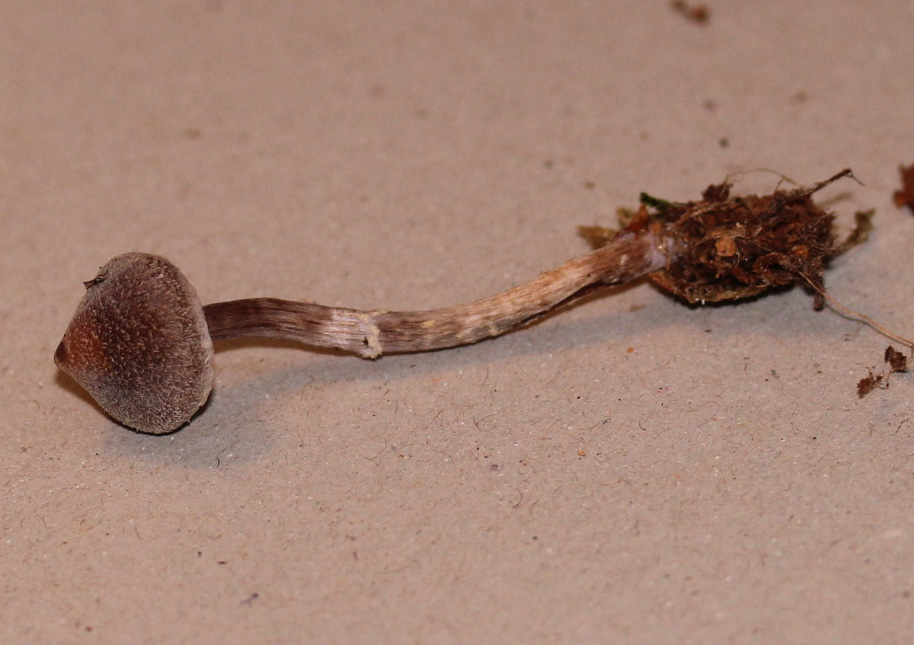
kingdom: Fungi
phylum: Basidiomycota
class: Agaricomycetes
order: Agaricales
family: Cortinariaceae
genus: Cortinarius
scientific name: Cortinarius
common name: pelargonie-slørhat
